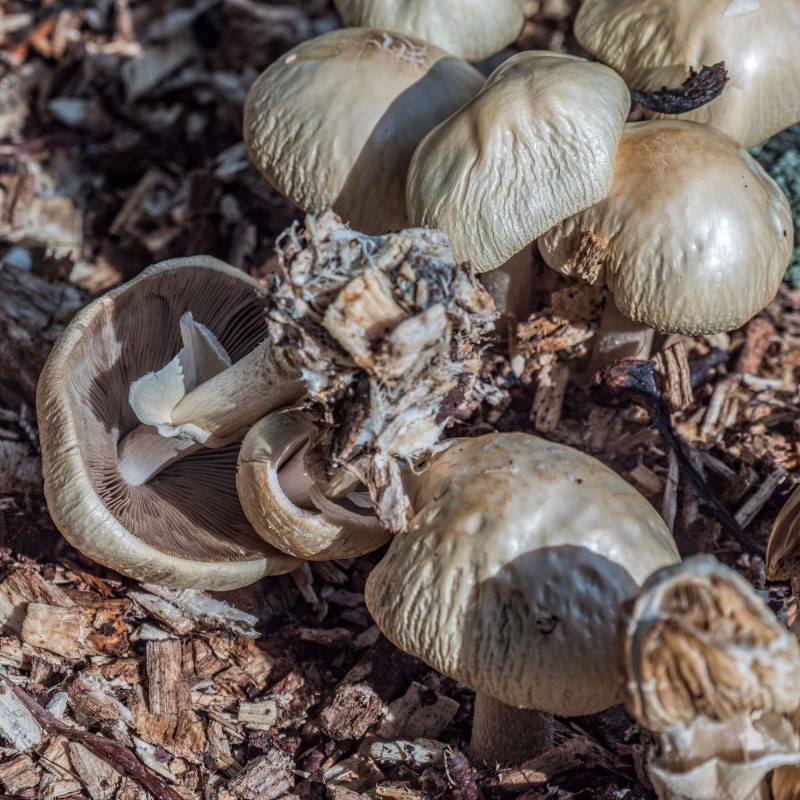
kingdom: Fungi
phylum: Basidiomycota
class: Agaricomycetes
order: Agaricales
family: Strophariaceae
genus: Agrocybe
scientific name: Agrocybe rivulosa
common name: året agerhat
